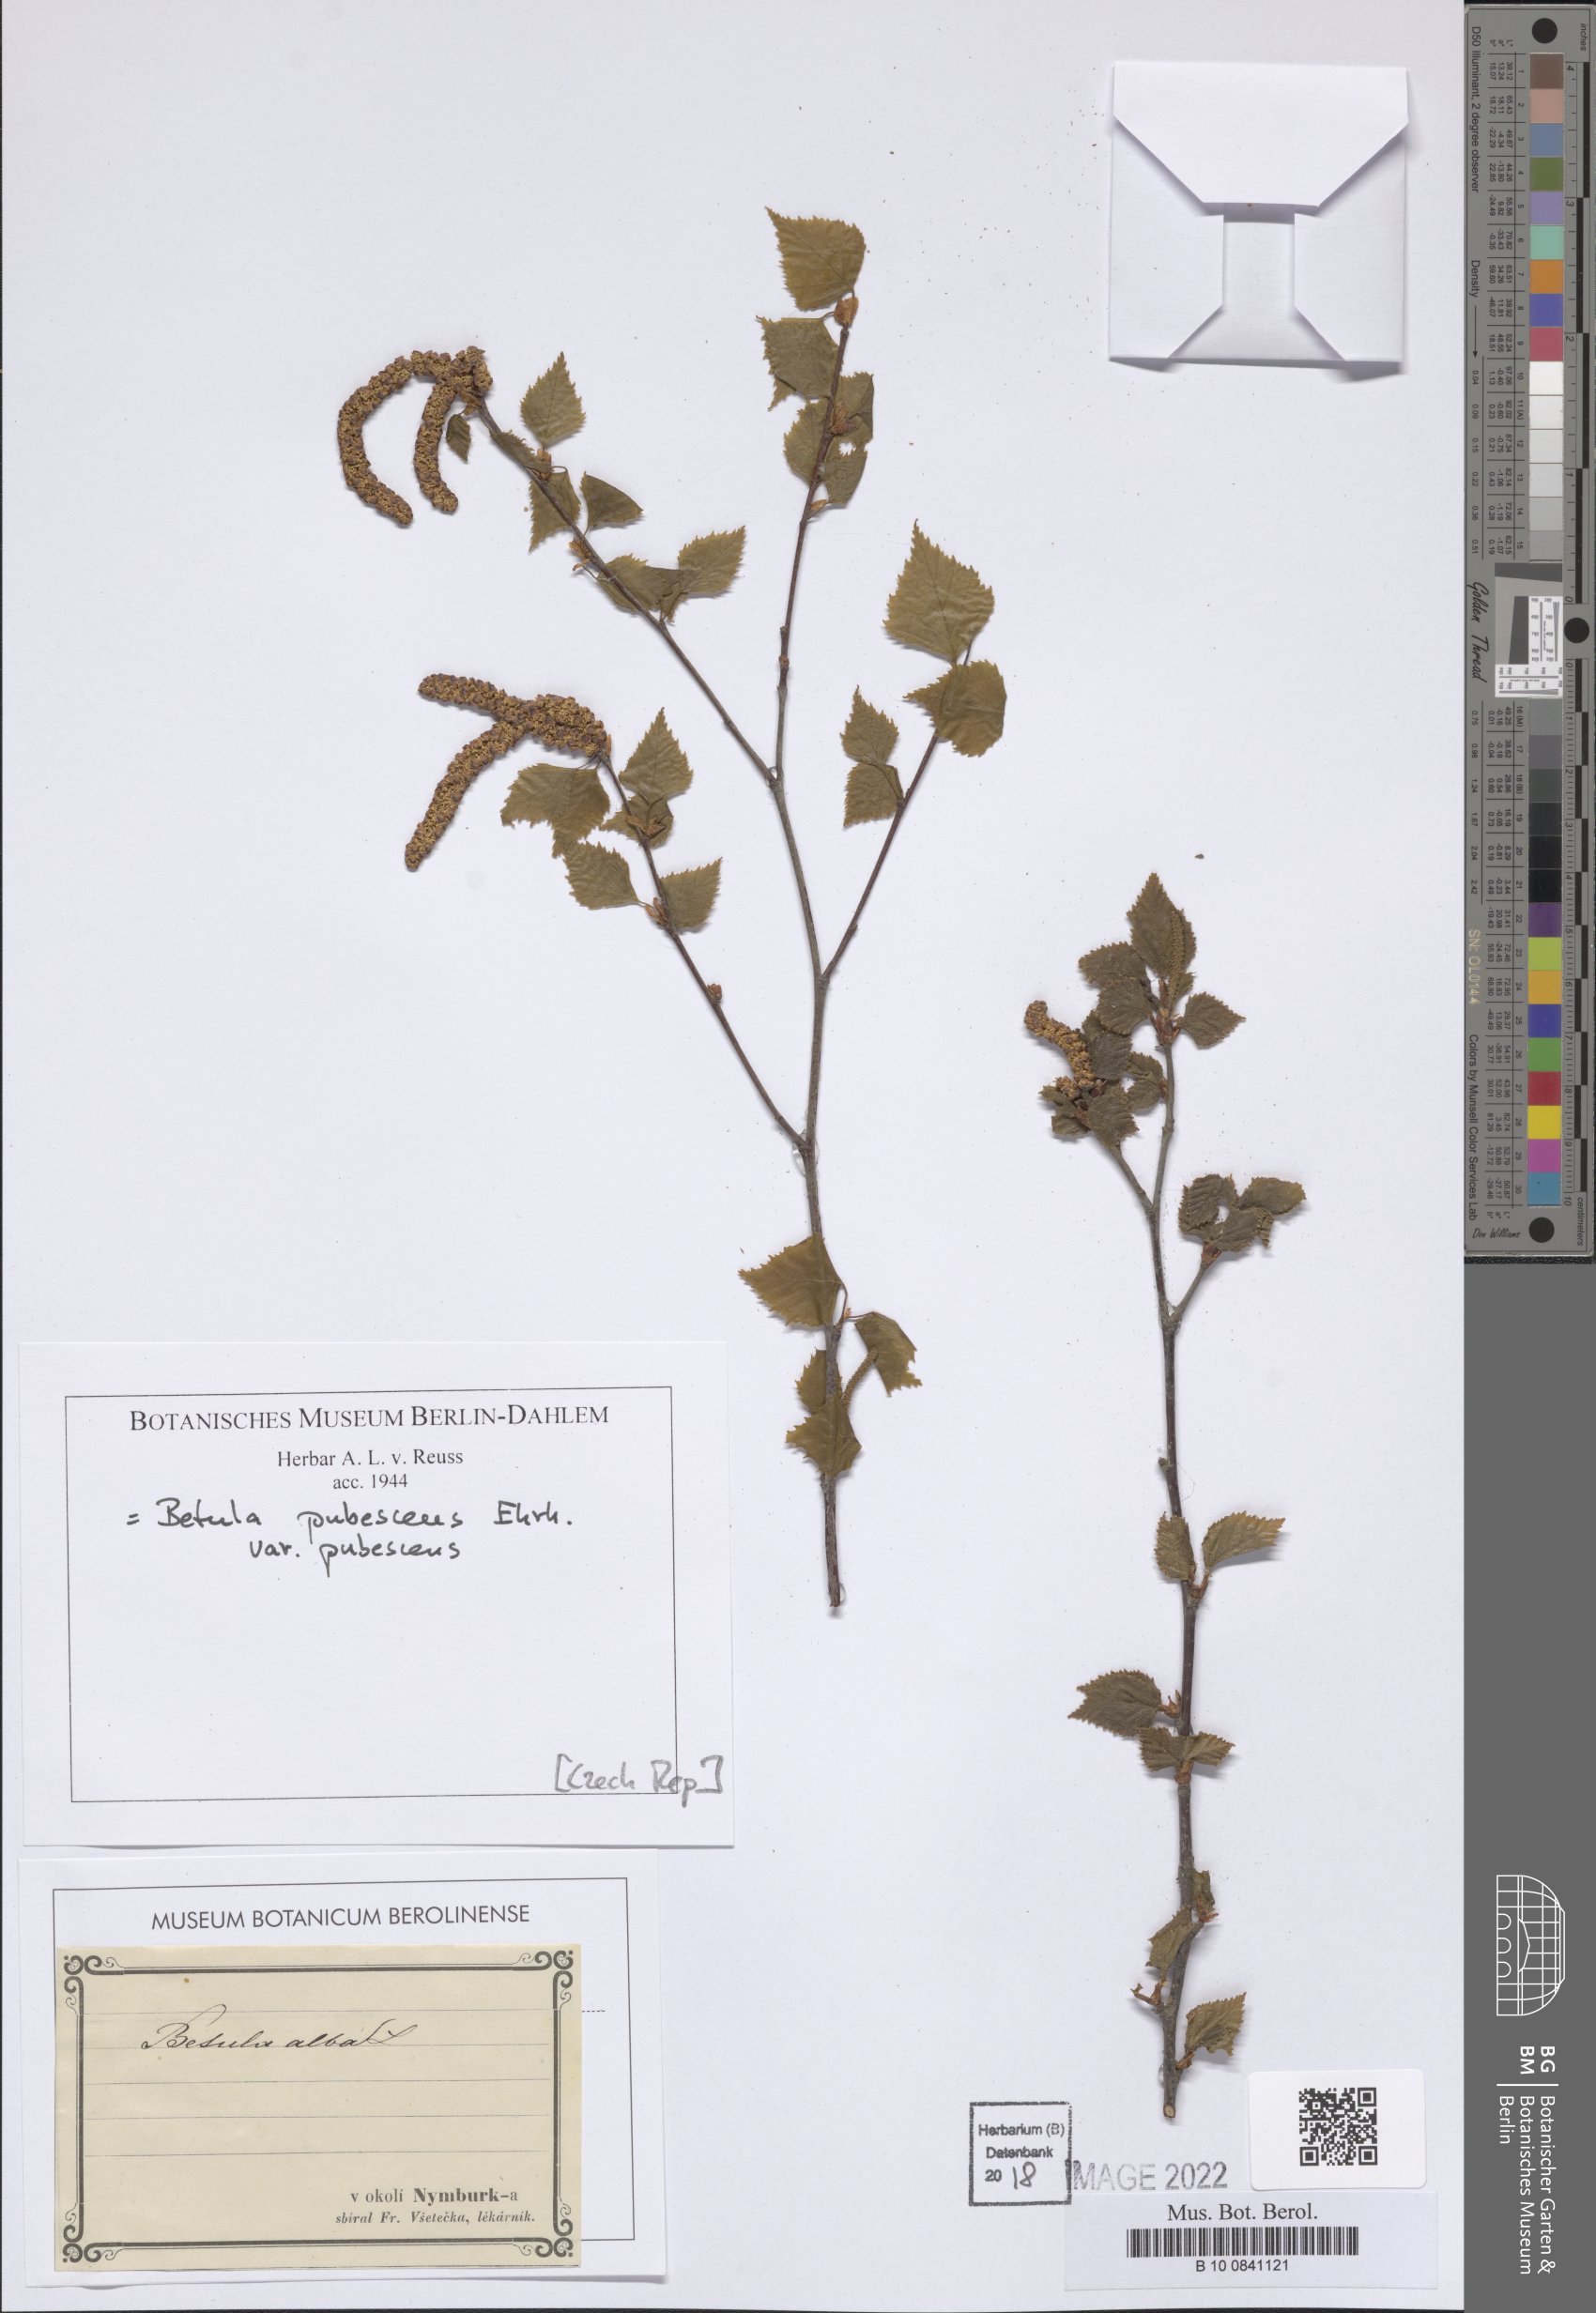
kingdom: Plantae
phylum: Tracheophyta
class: Magnoliopsida
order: Fagales
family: Betulaceae
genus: Betula
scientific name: Betula pubescens
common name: Downy birch
